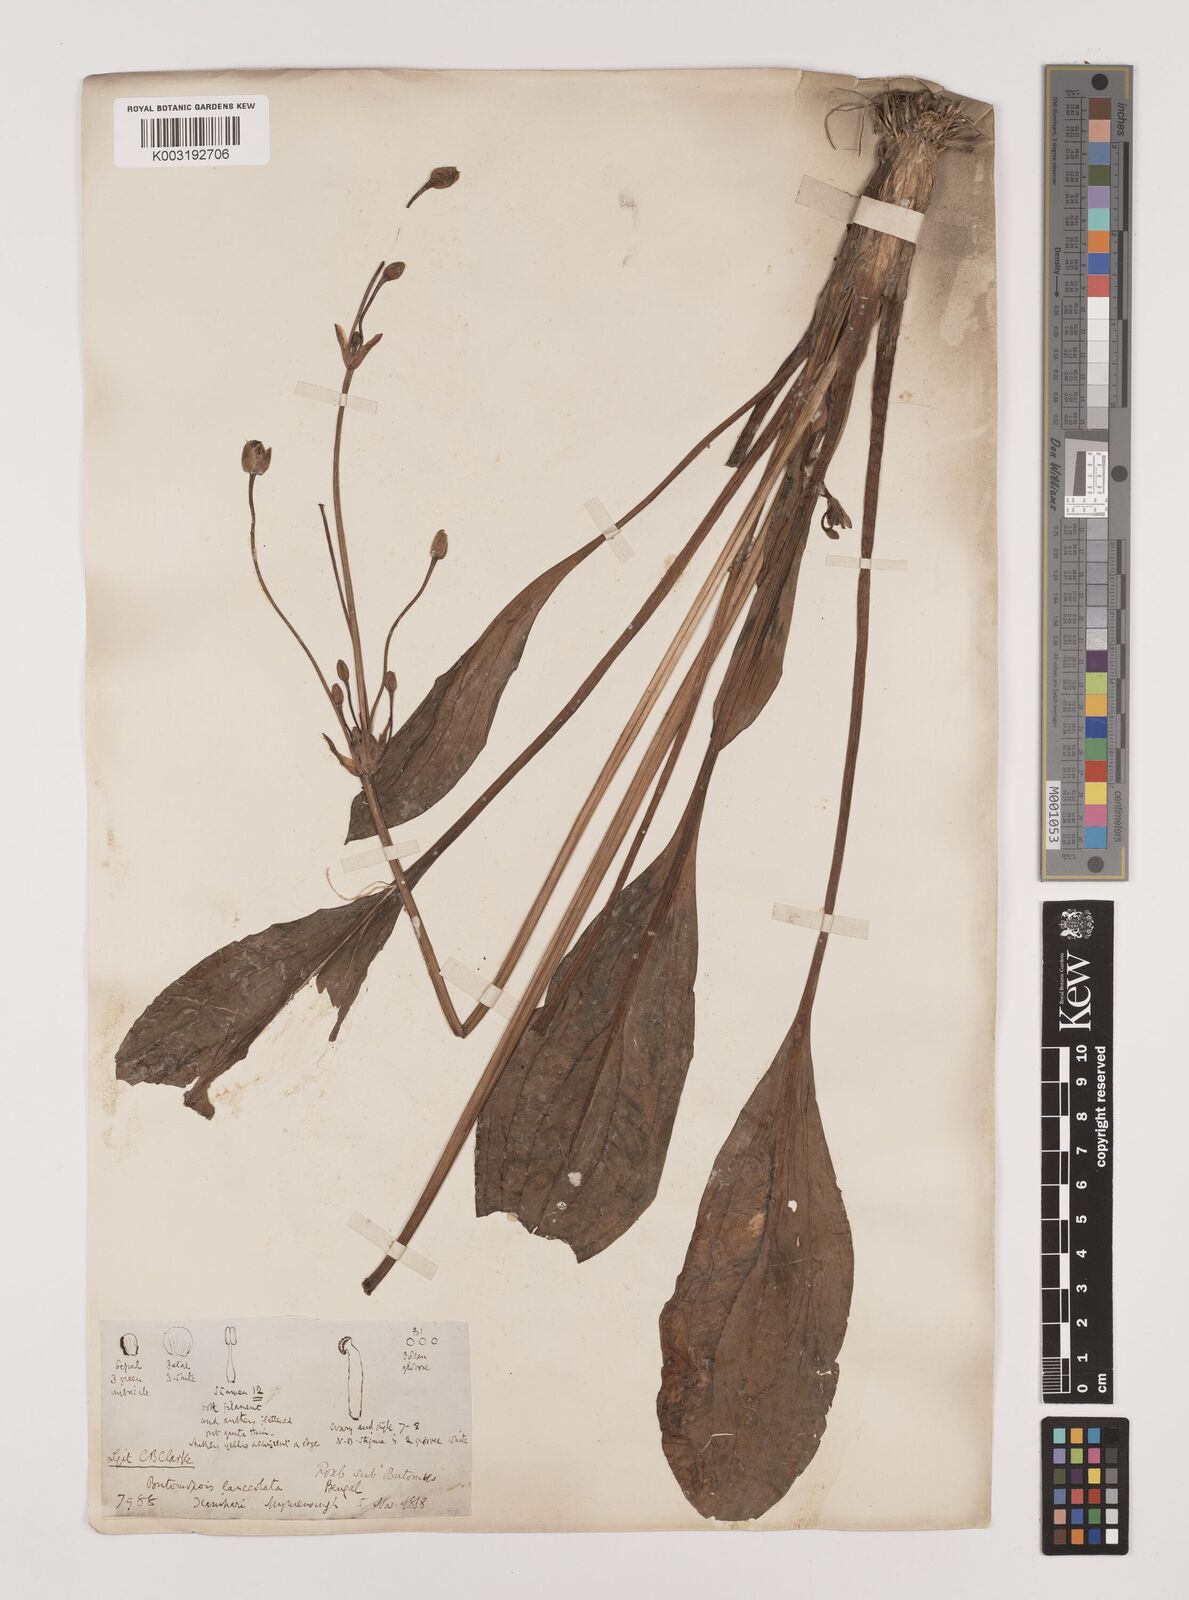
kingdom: Plantae
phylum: Tracheophyta
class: Liliopsida
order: Alismatales
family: Alismataceae
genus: Butomopsis
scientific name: Butomopsis latifolia
